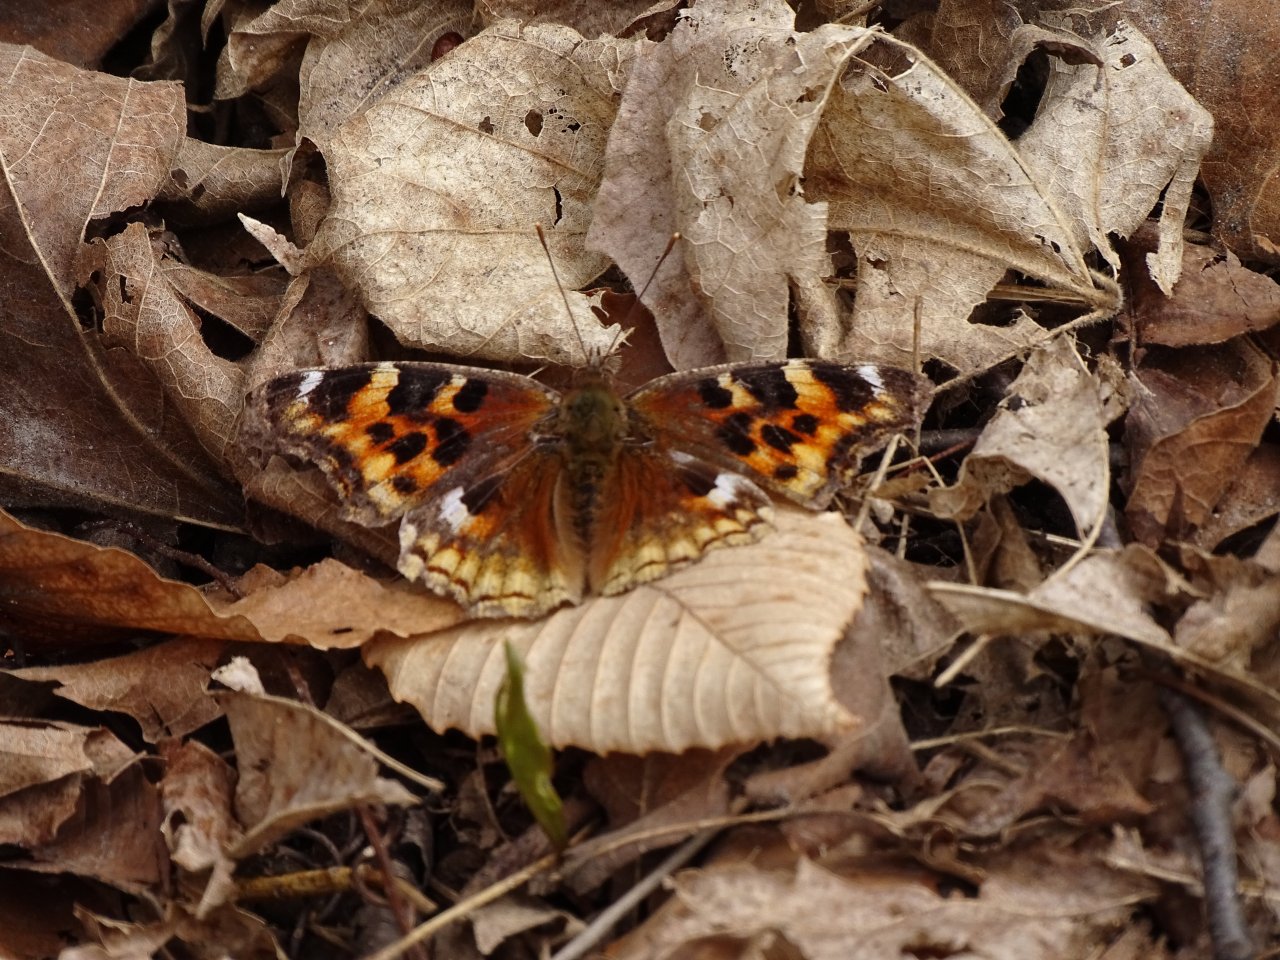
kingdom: Animalia
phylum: Arthropoda
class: Insecta
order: Lepidoptera
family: Nymphalidae
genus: Polygonia
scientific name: Polygonia vaualbum
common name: Compton Tortoiseshell
